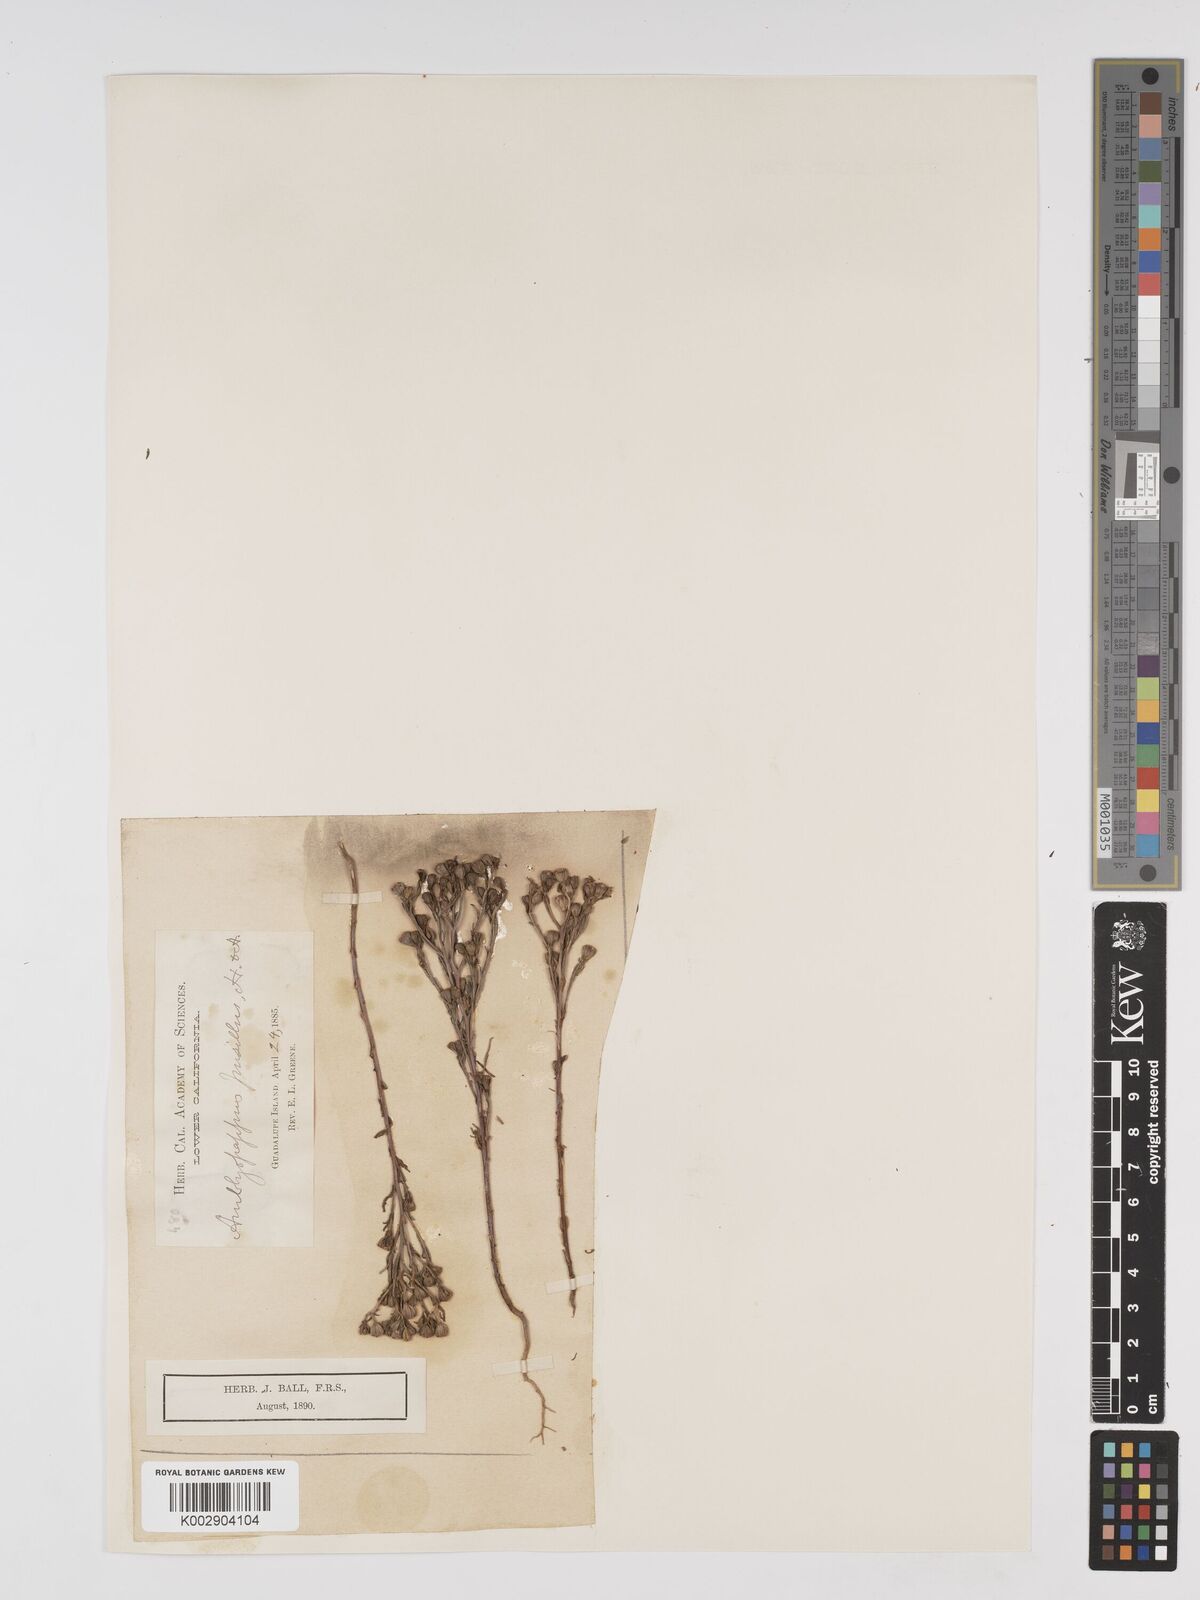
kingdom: Plantae
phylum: Tracheophyta
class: Magnoliopsida
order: Asterales
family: Asteraceae
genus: Amblyopappus
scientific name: Amblyopappus pusillus
